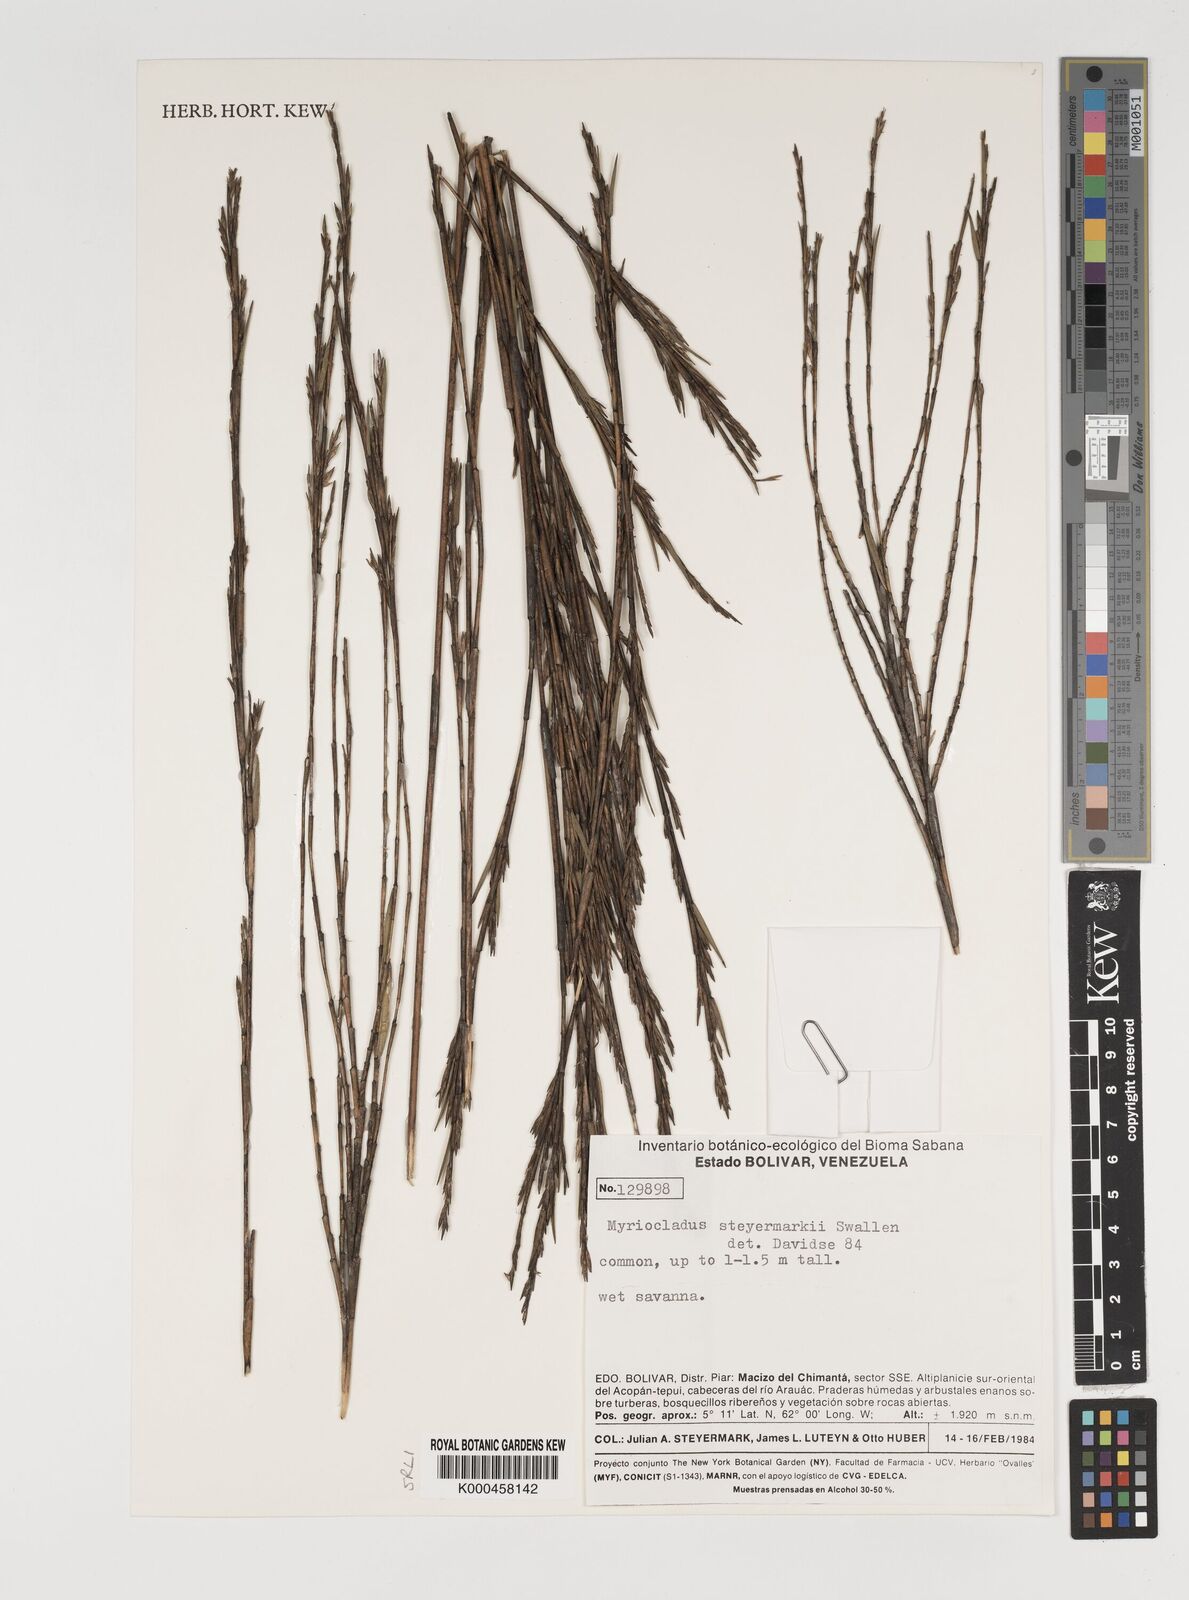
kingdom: Plantae
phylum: Tracheophyta
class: Liliopsida
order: Poales
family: Poaceae
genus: Myriocladus
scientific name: Myriocladus steyermarkii
